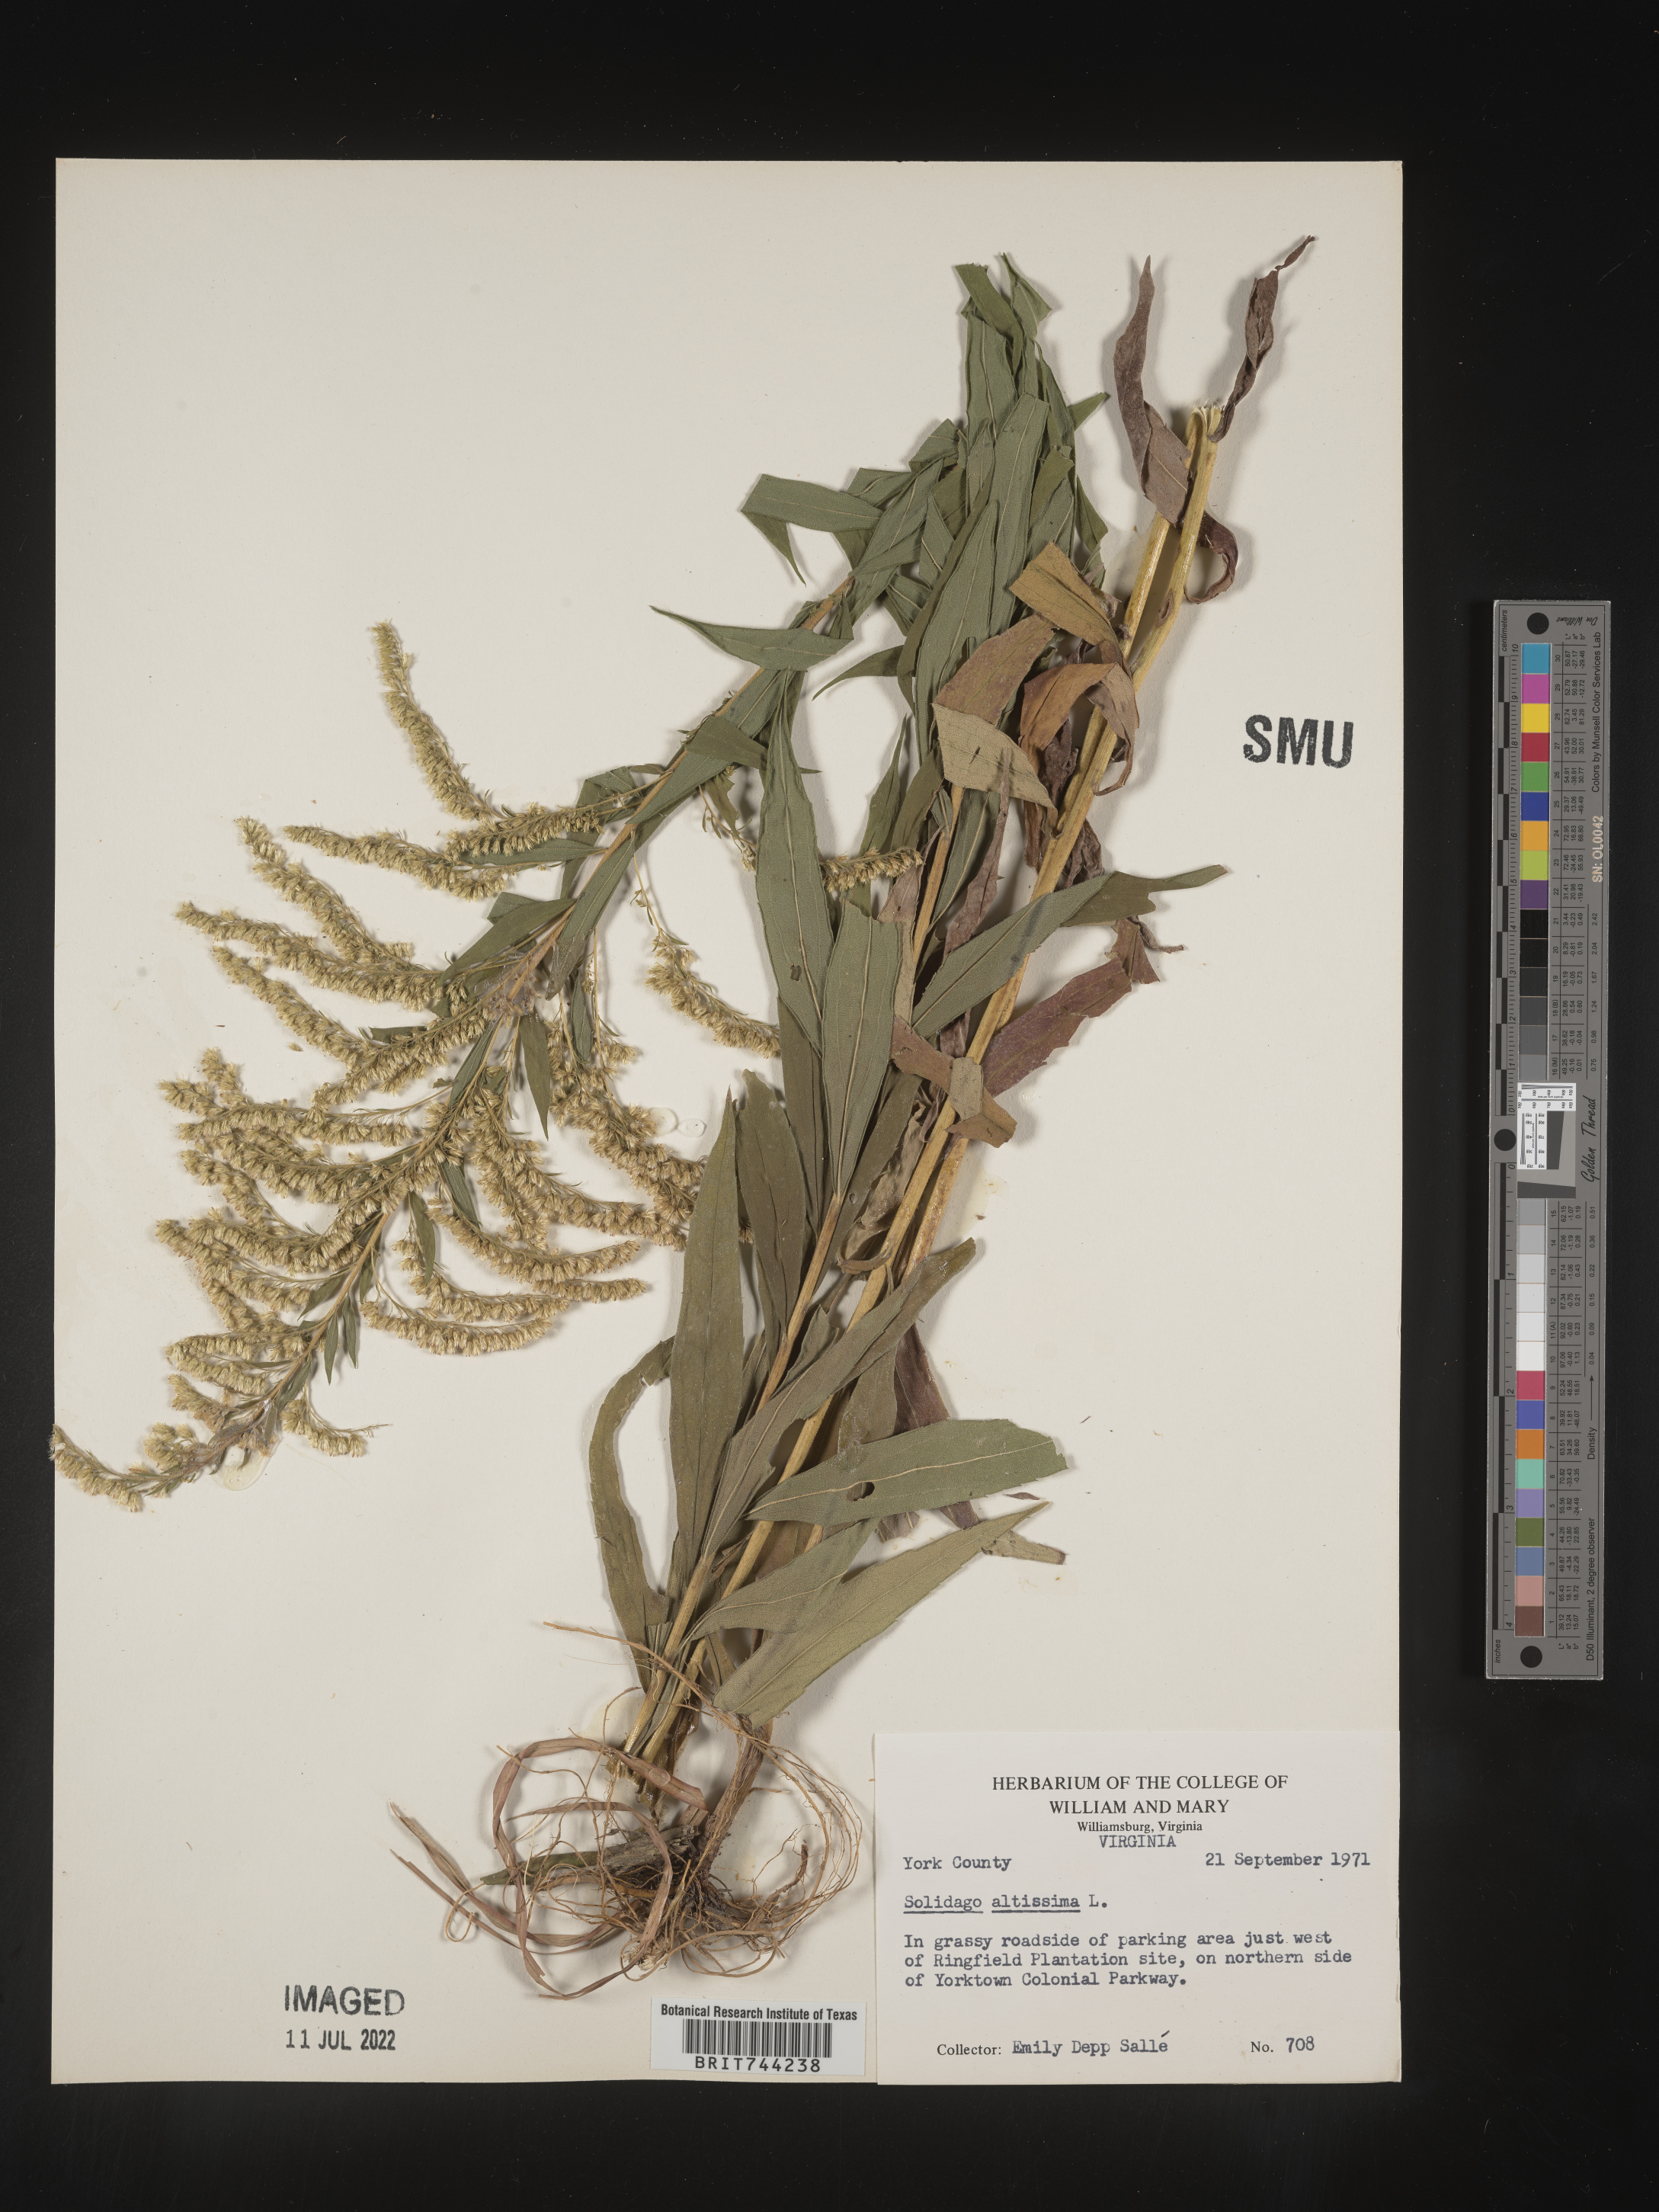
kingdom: Plantae
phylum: Tracheophyta
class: Magnoliopsida
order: Asterales
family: Asteraceae
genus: Solidago
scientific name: Solidago altissima
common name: Late goldenrod
